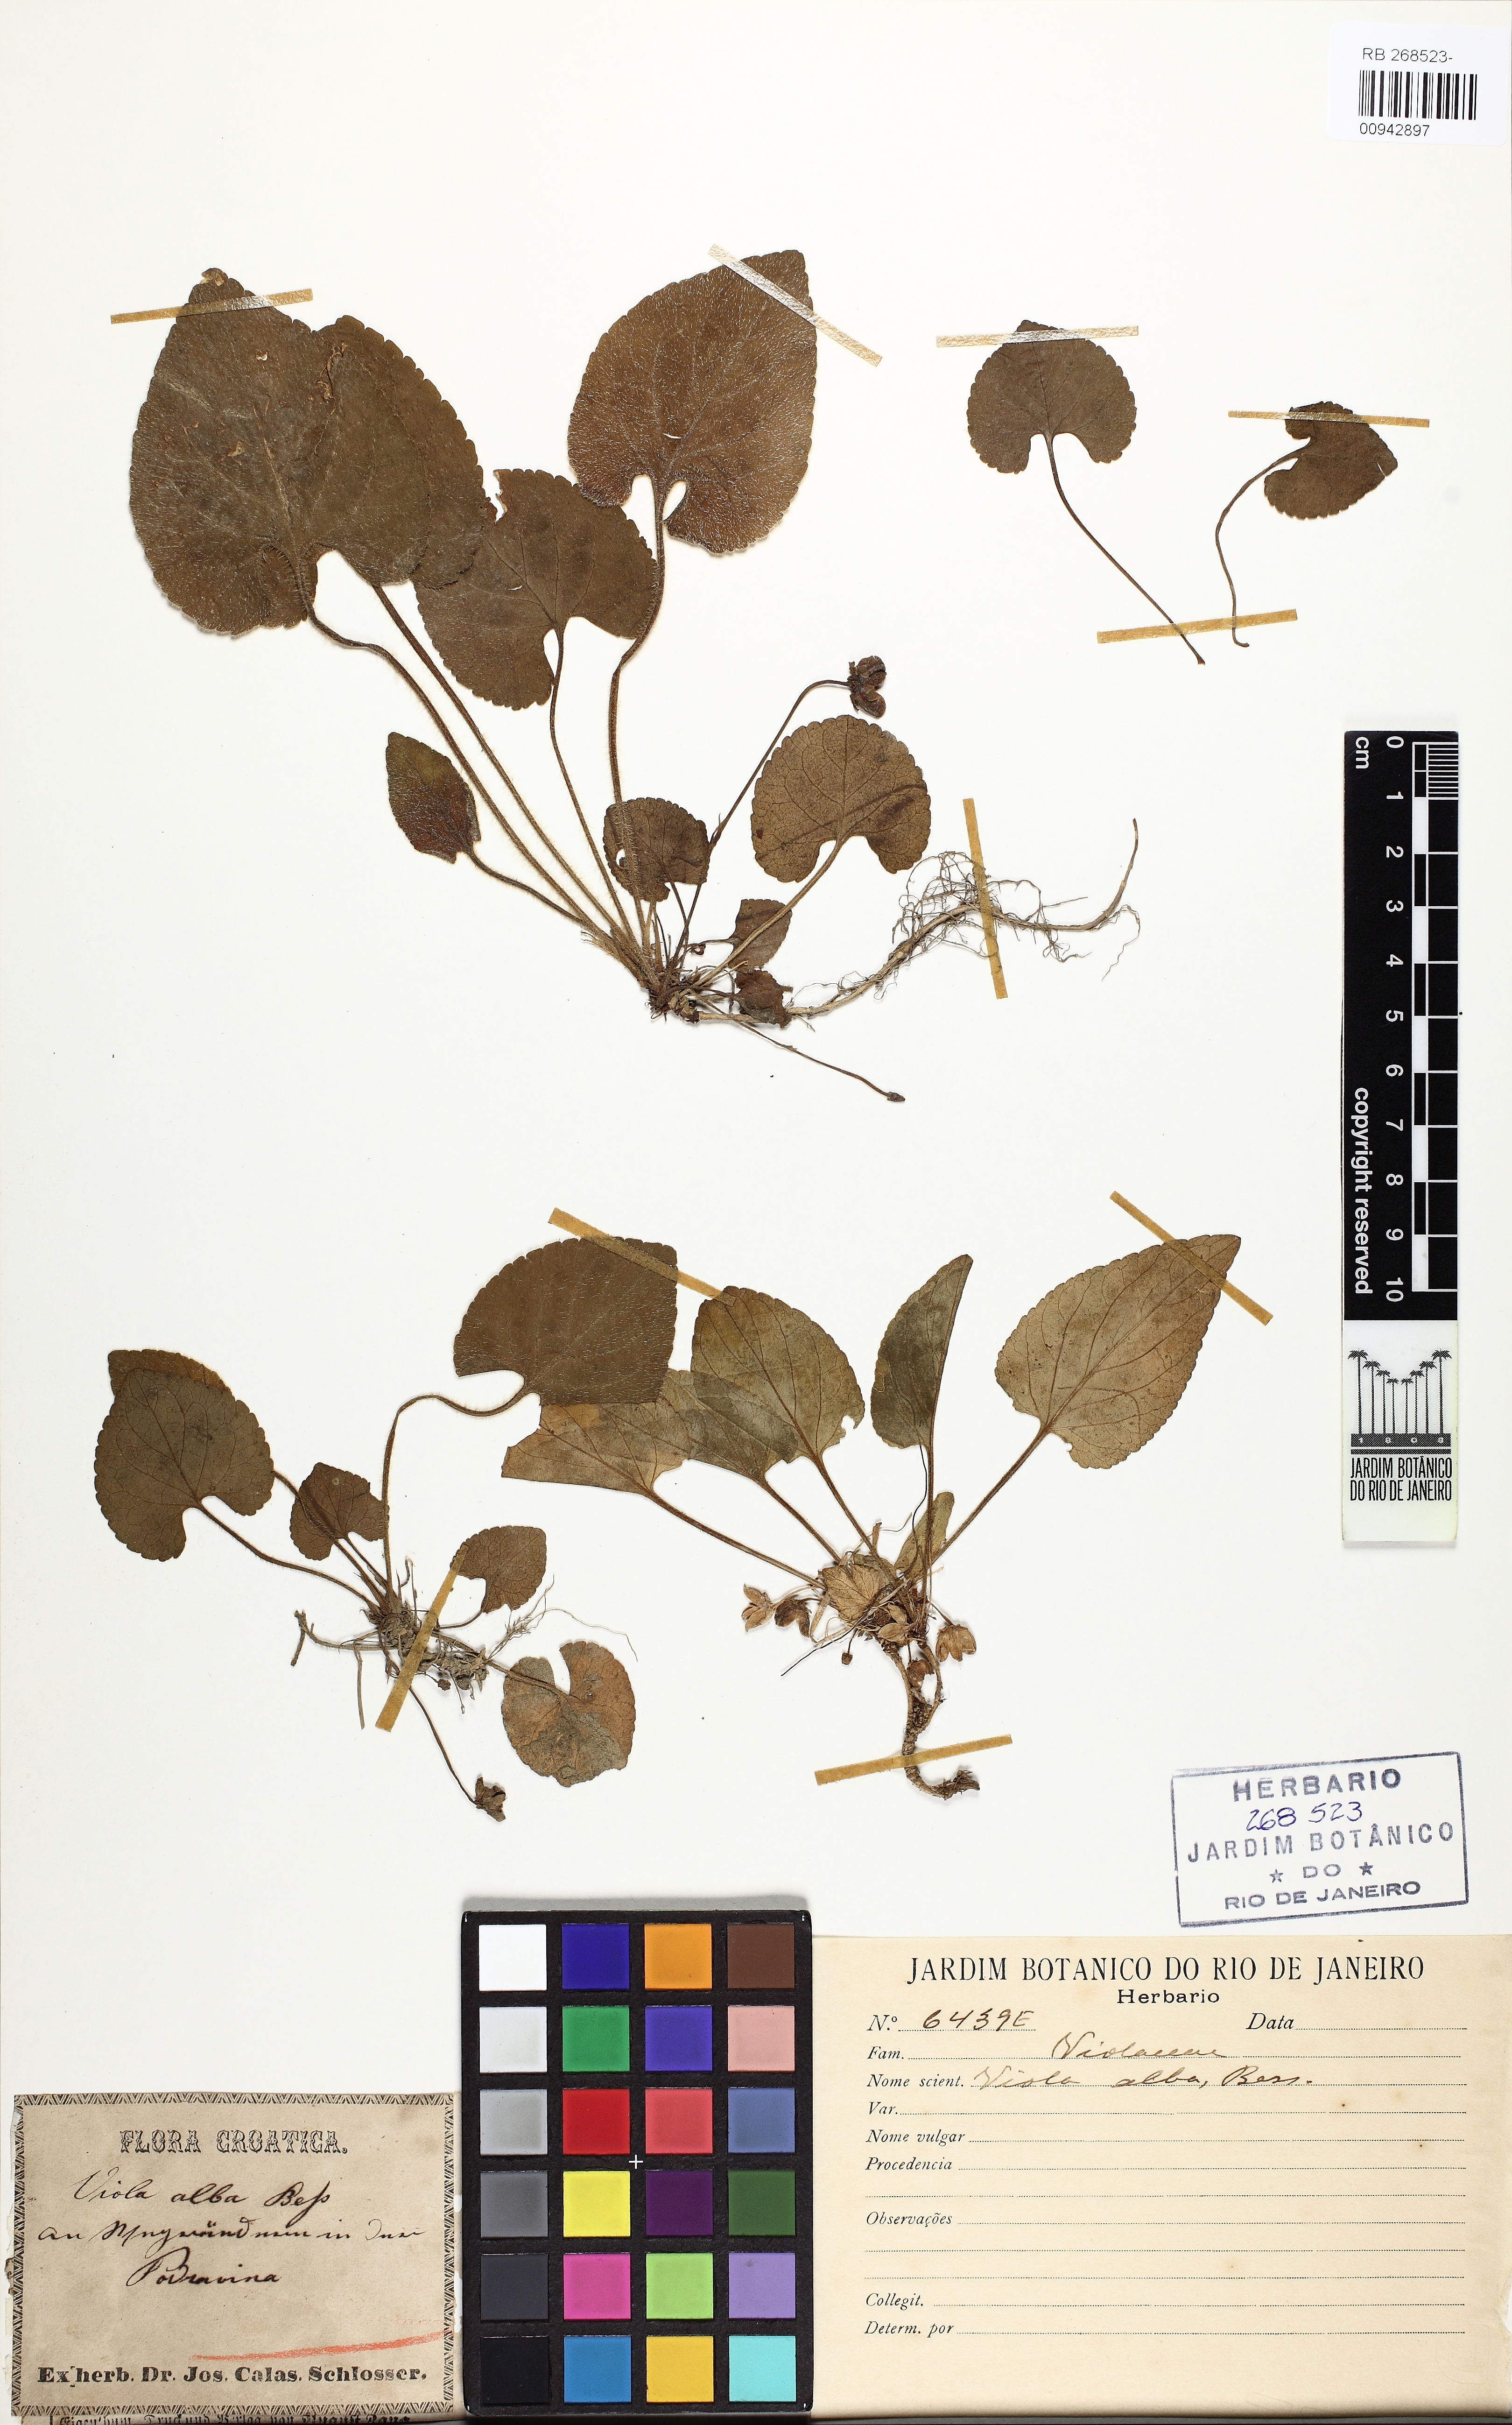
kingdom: Plantae
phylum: Tracheophyta
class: Magnoliopsida
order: Malpighiales
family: Violaceae
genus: Viola
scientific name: Viola alba
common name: White violet
